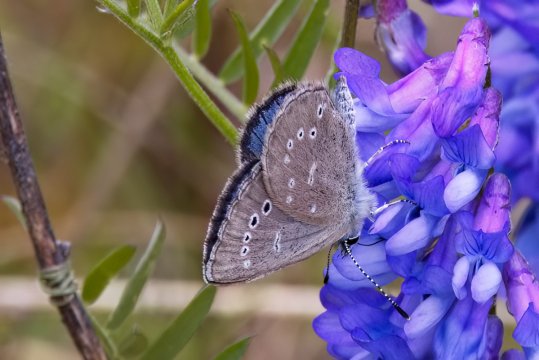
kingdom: Animalia
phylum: Arthropoda
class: Insecta
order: Lepidoptera
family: Lycaenidae
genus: Glaucopsyche
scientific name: Glaucopsyche lygdamus
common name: Silvery Blue
